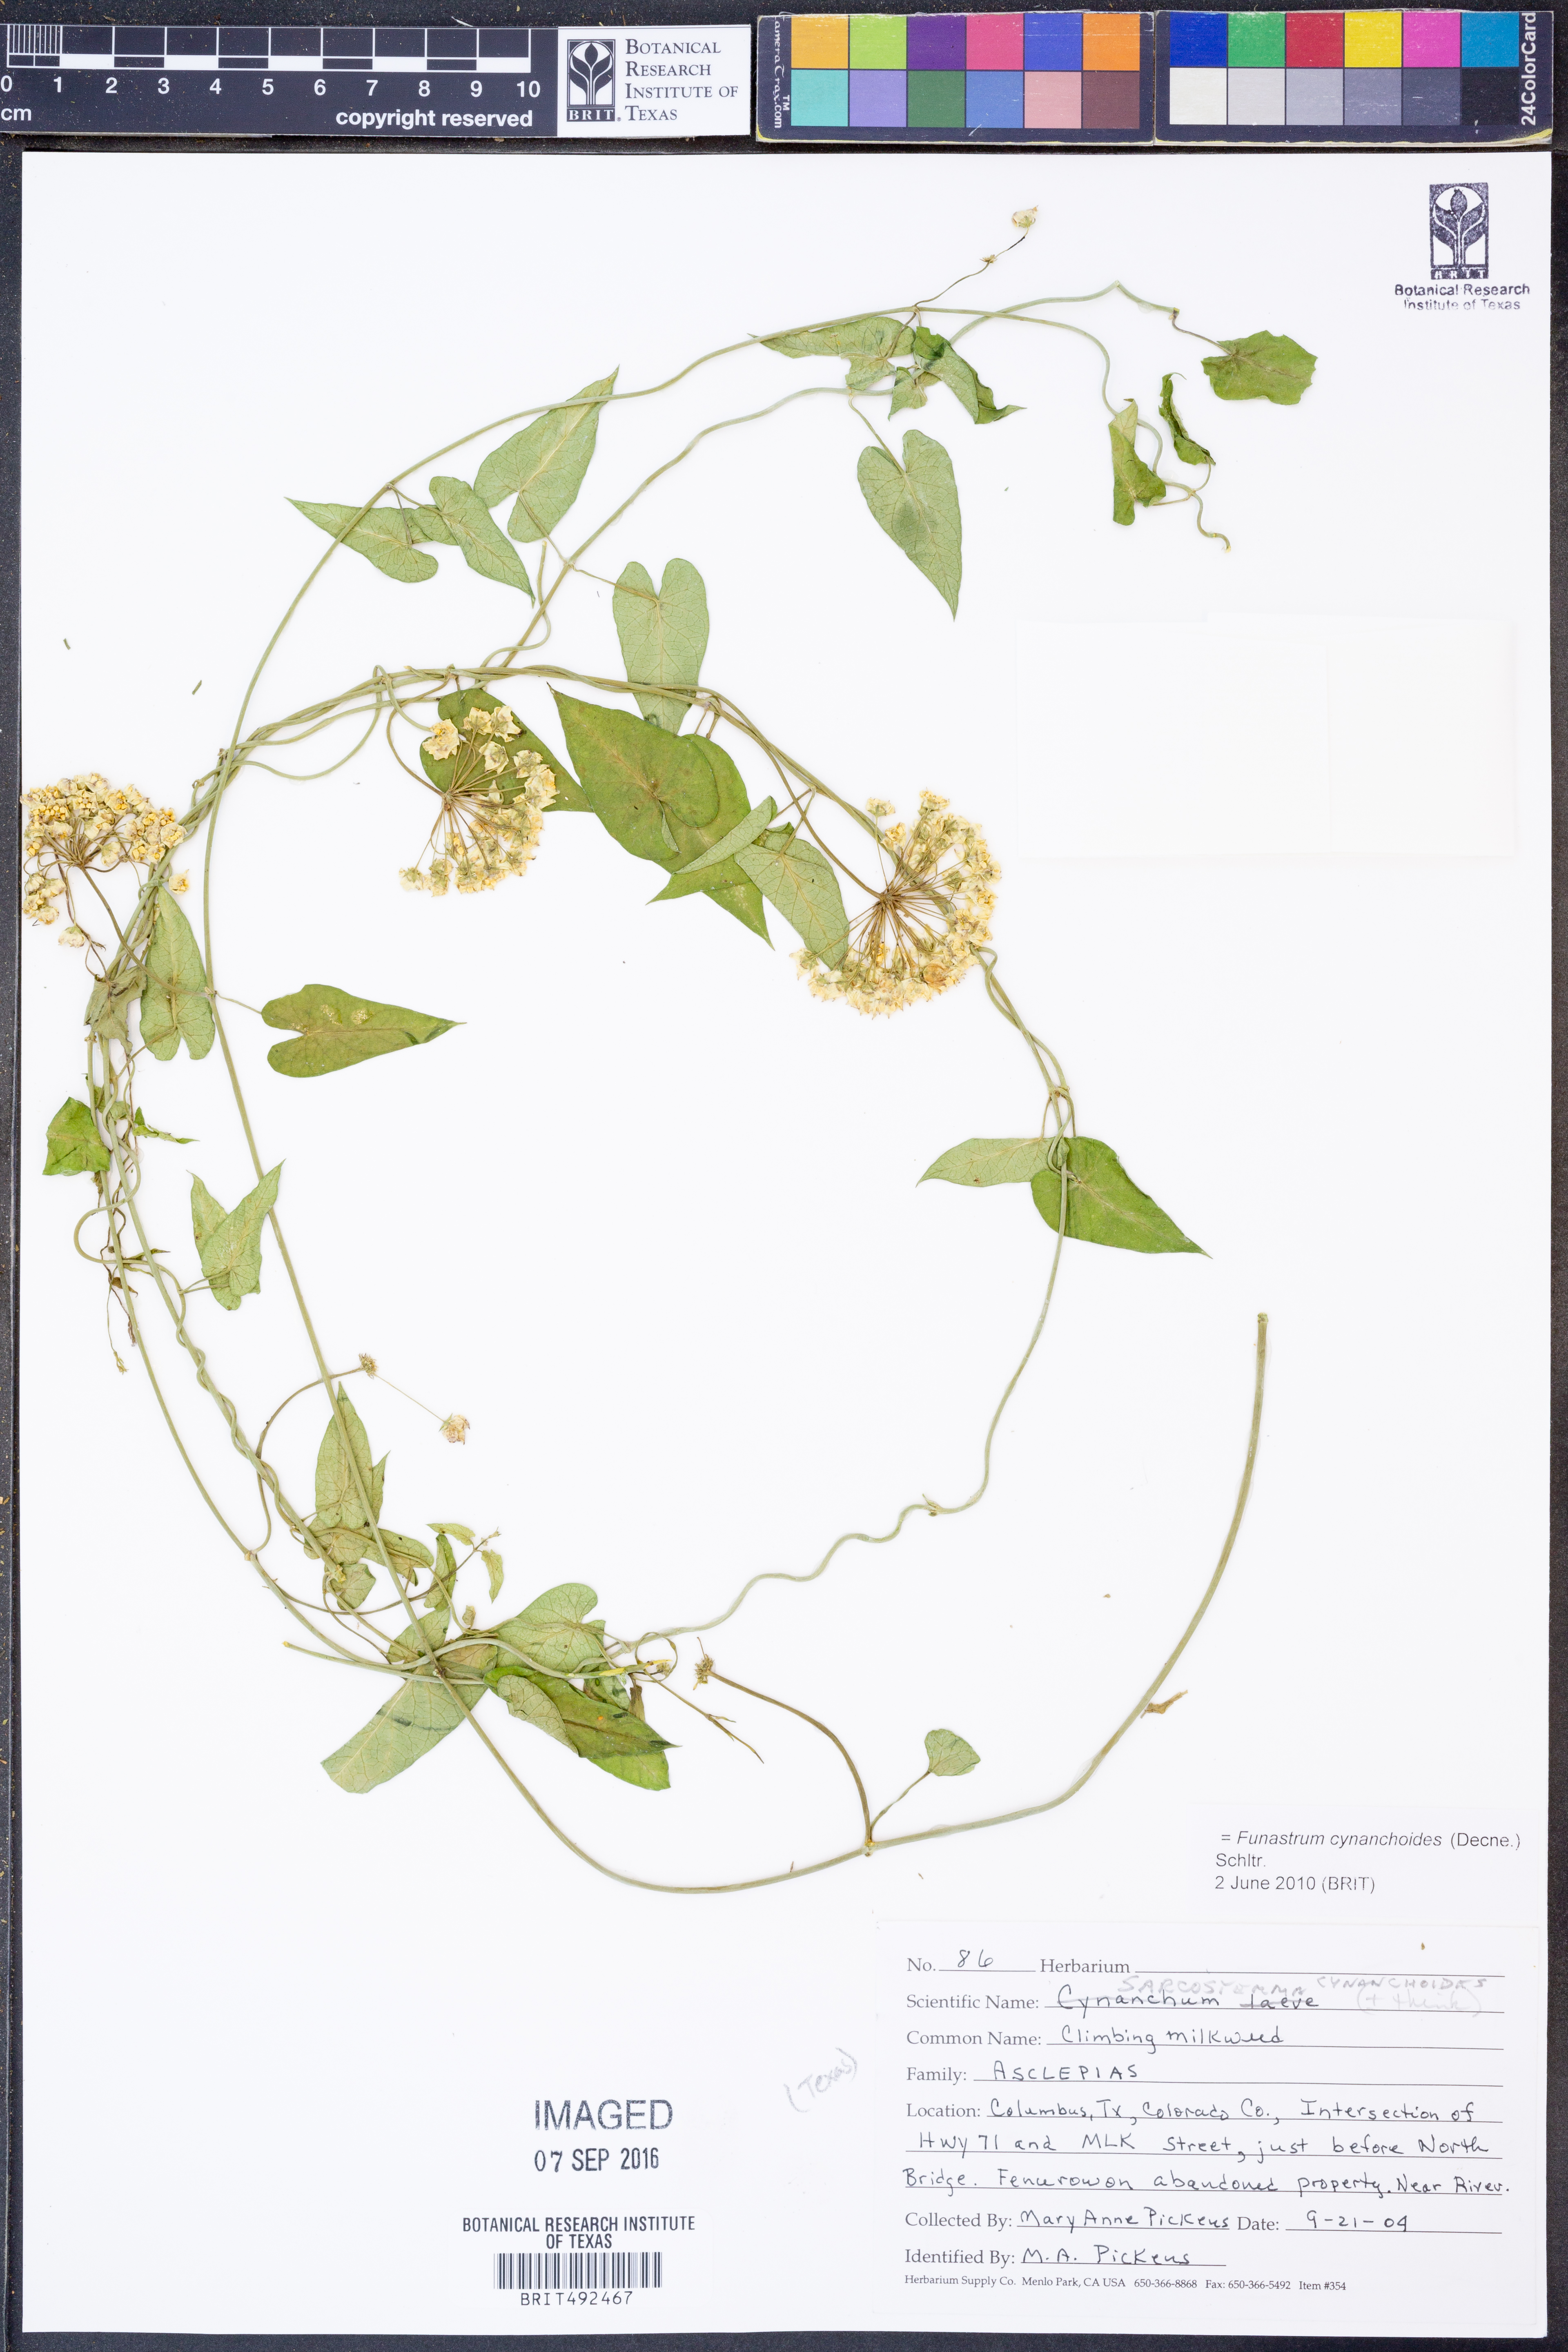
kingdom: Plantae
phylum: Tracheophyta
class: Magnoliopsida
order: Gentianales
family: Apocynaceae
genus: Funastrum
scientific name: Funastrum cynanchoides
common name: Climbing-milkweed
